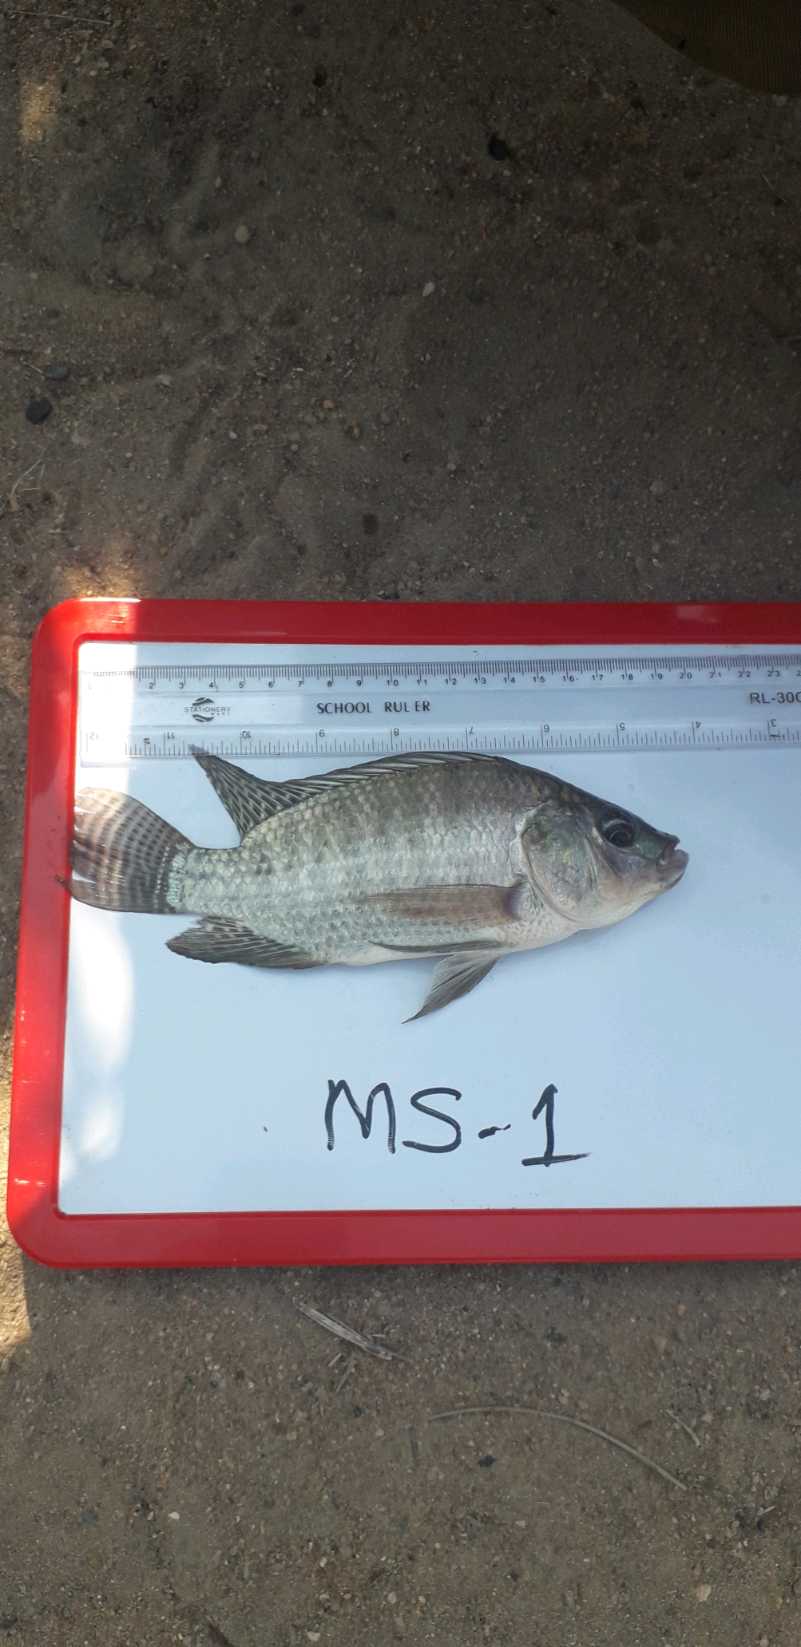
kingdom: Animalia
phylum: Chordata
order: Perciformes
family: Cichlidae
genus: Oreochromis
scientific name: Oreochromis niloticus
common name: Nile tilapia
